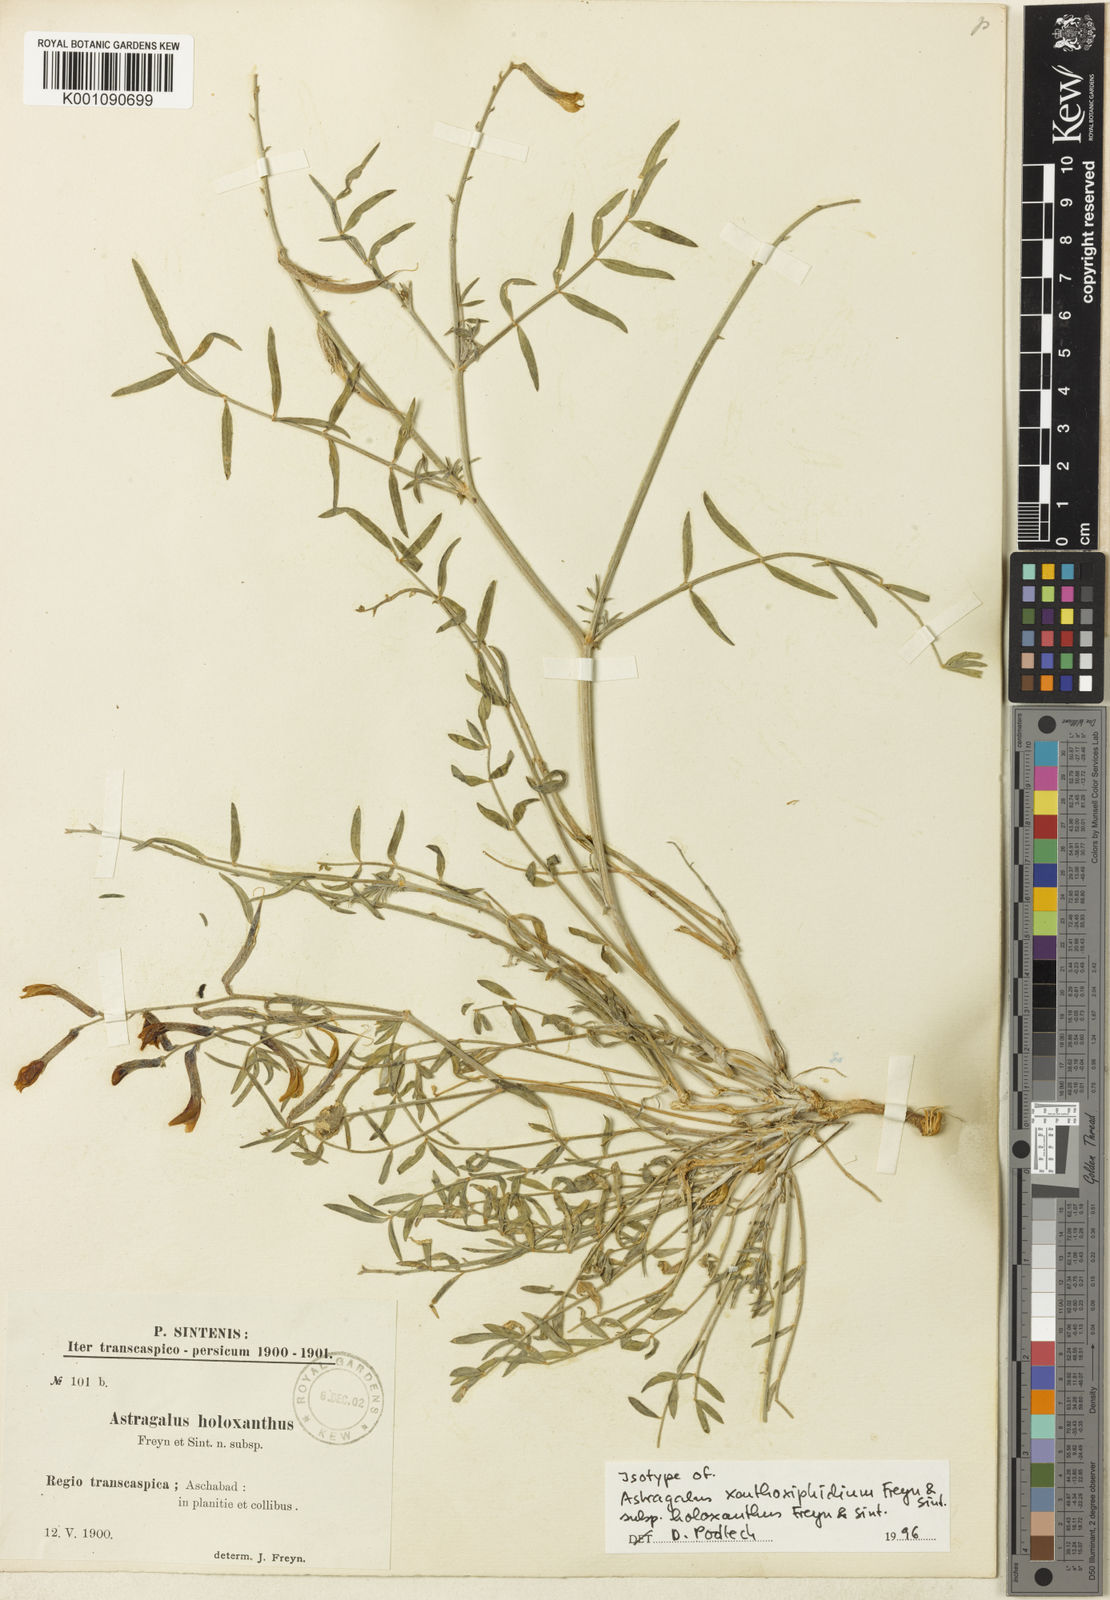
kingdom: Plantae
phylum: Tracheophyta
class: Magnoliopsida
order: Fabales
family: Fabaceae
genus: Astragalus
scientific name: Astragalus
